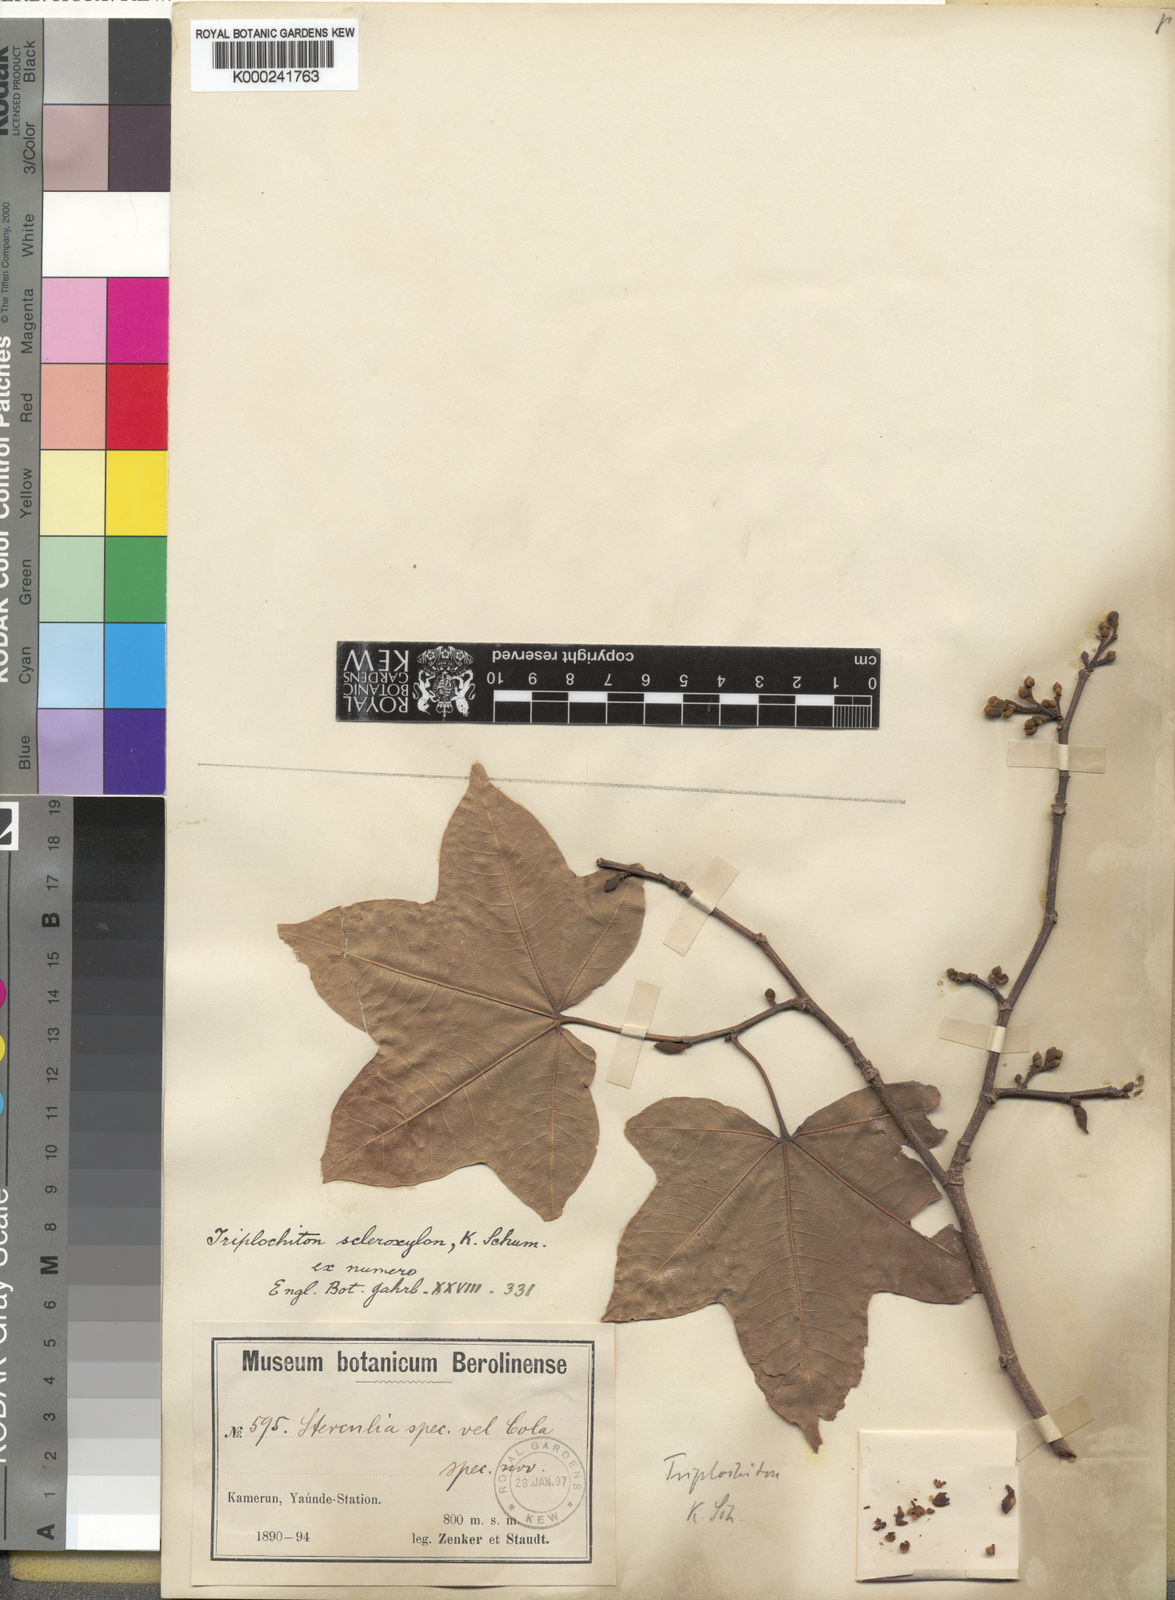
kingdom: Plantae
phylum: Tracheophyta
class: Magnoliopsida
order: Malvales
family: Malvaceae
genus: Triplochiton
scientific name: Triplochiton scleroxylon
